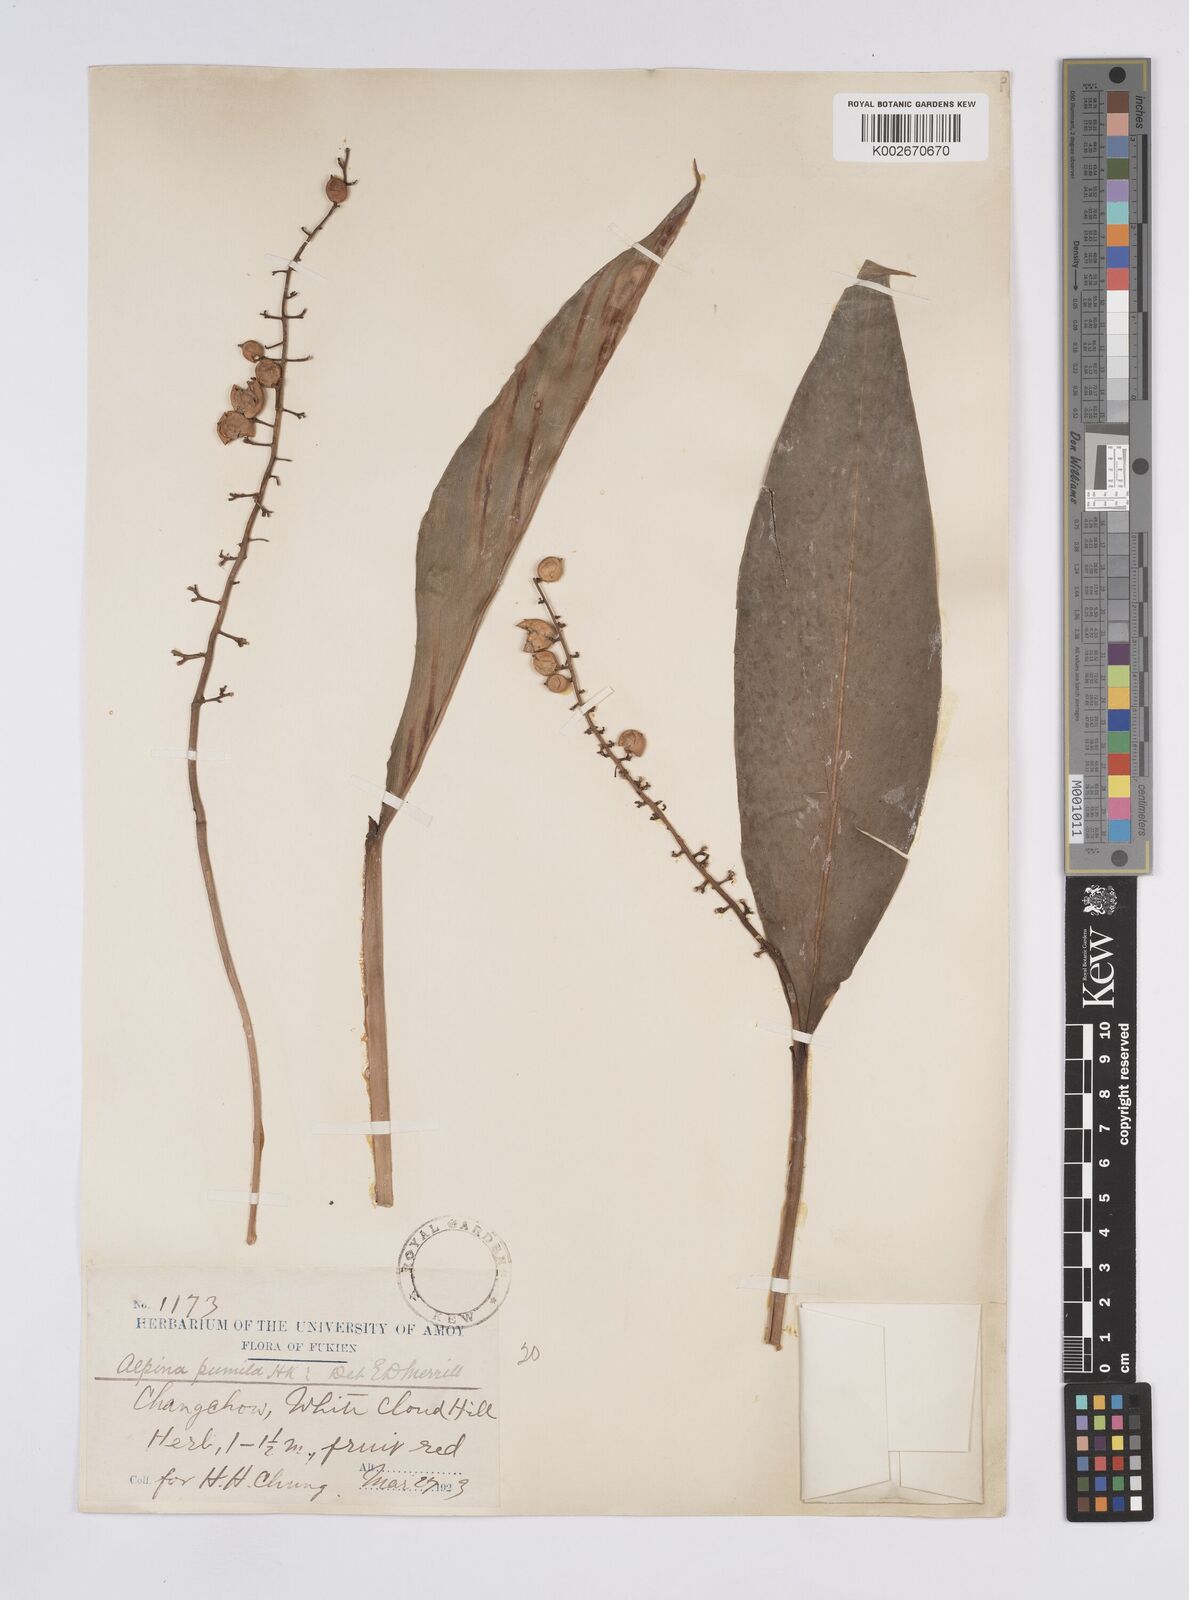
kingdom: Plantae
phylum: Tracheophyta
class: Liliopsida
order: Zingiberales
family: Zingiberaceae
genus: Alpinia
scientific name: Alpinia manii
